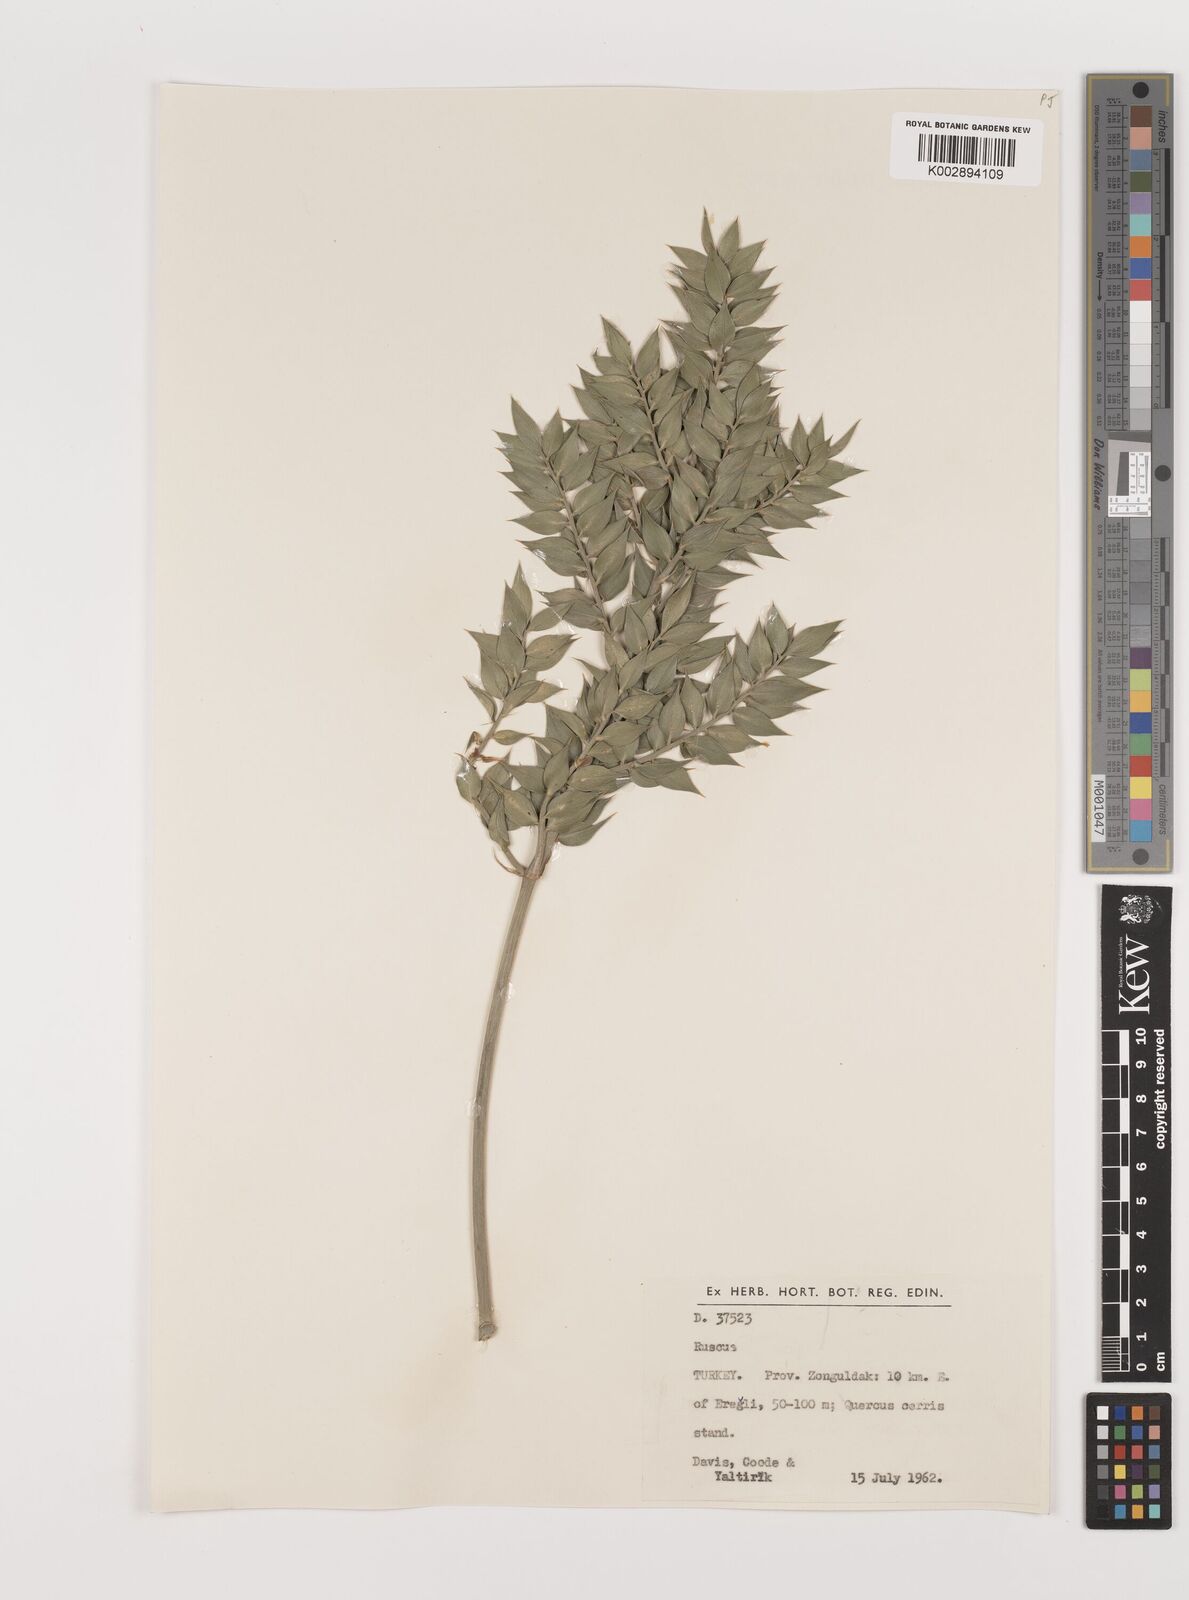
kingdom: Plantae
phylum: Tracheophyta
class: Liliopsida
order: Asparagales
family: Asparagaceae
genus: Ruscus
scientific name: Ruscus aculeatus
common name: Butcher's-broom
